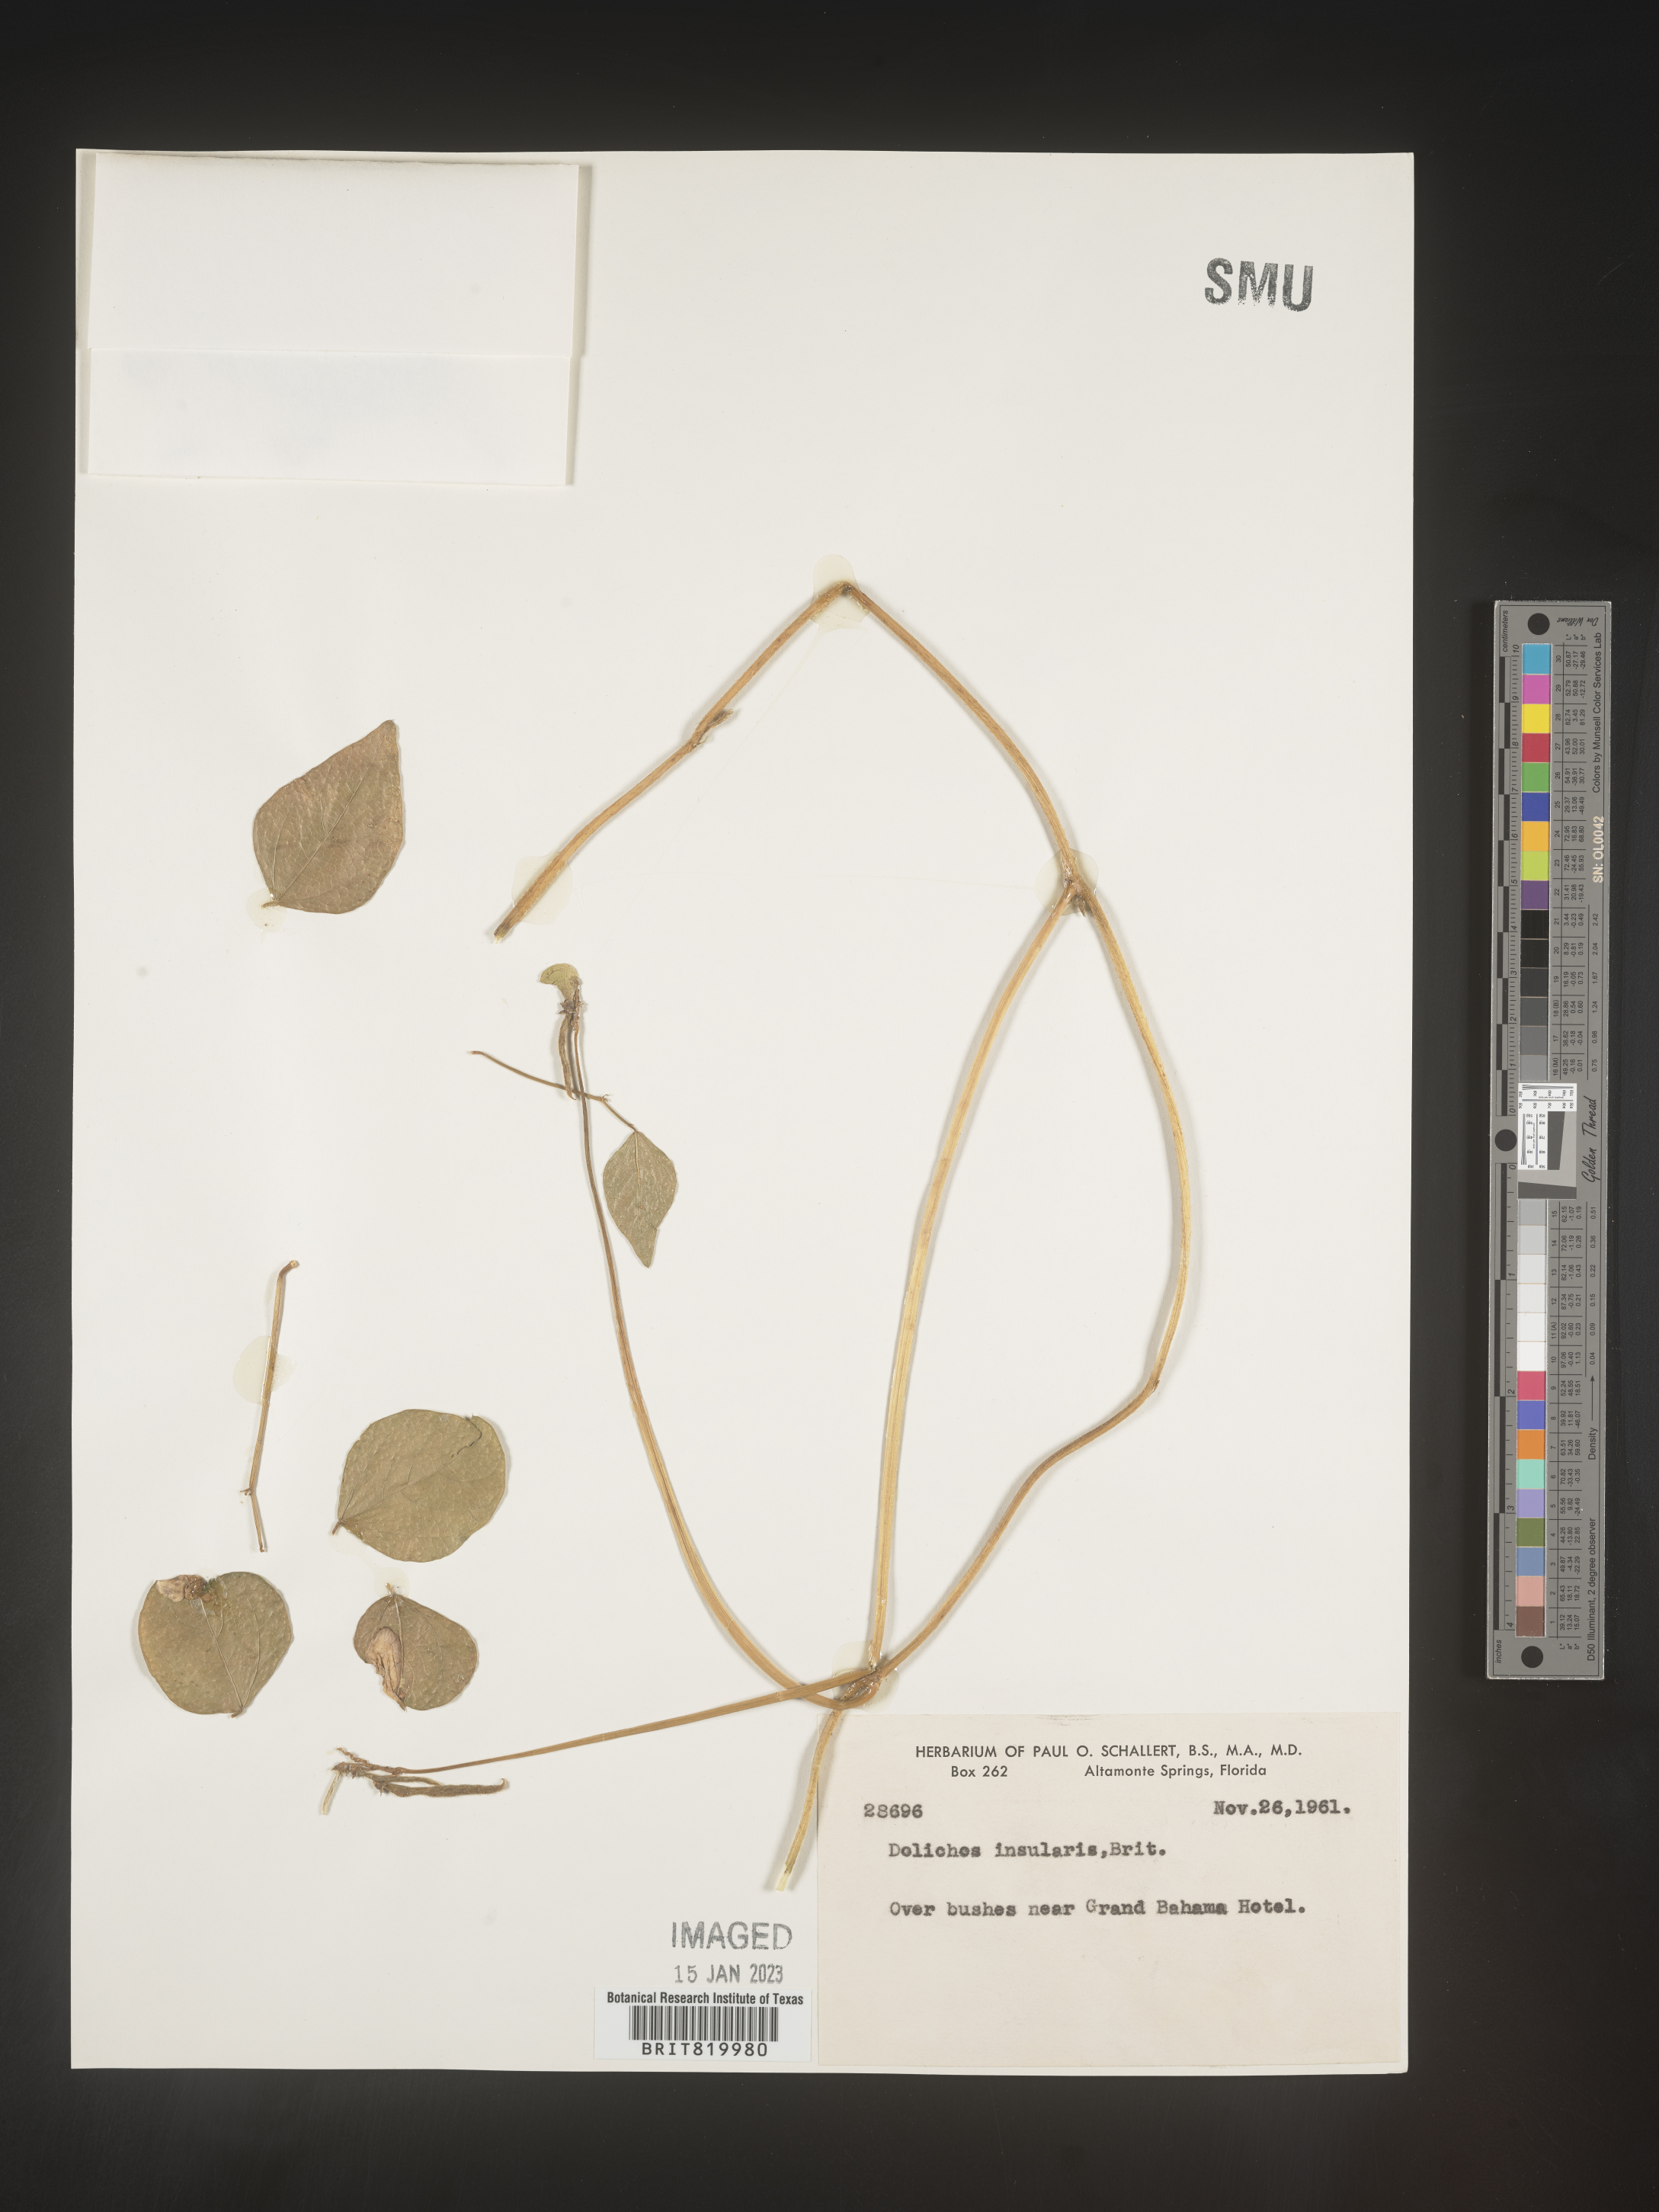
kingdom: Plantae
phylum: Tracheophyta
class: Magnoliopsida
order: Fabales
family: Fabaceae
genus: Dolichos
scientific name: Dolichos
